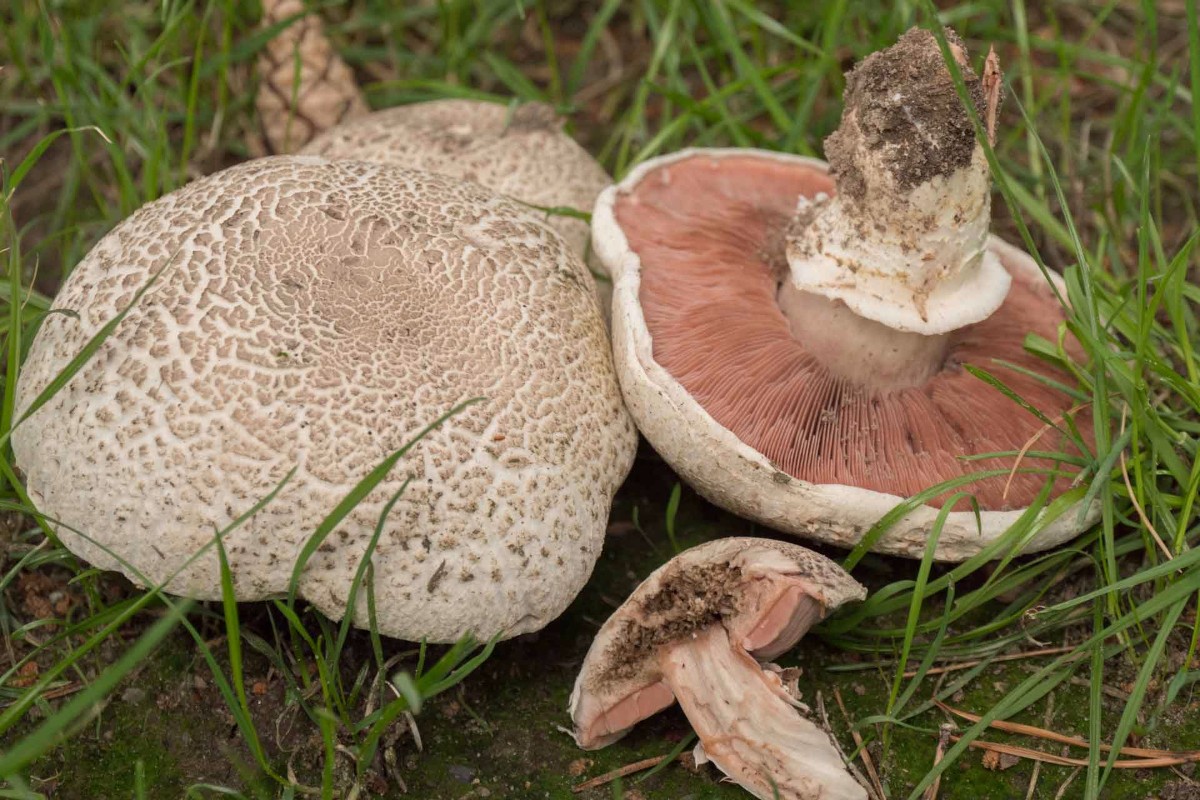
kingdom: Fungi
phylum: Basidiomycota
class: Agaricomycetes
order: Agaricales
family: Agaricaceae
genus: Agaricus
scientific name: Agaricus subfloccosus
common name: randskællet champignon
